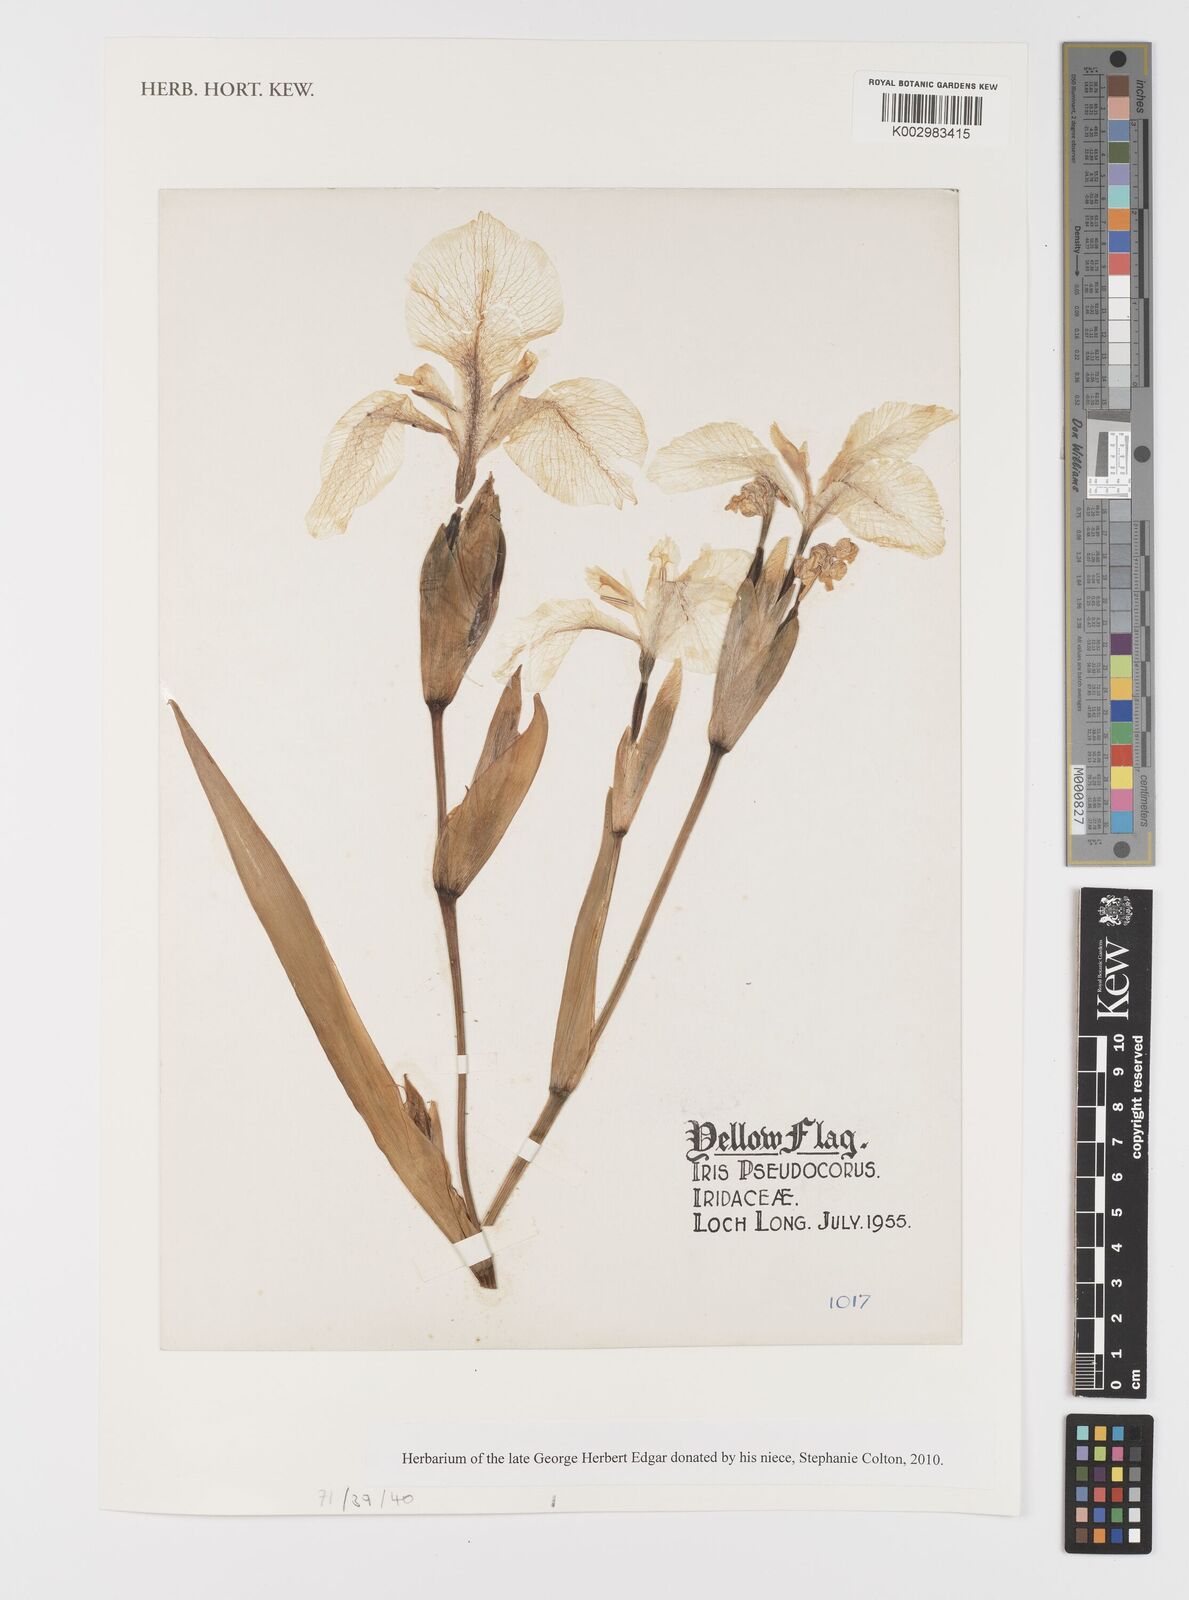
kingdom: Plantae
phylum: Tracheophyta
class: Liliopsida
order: Asparagales
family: Iridaceae
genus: Iris
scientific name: Iris pseudacorus
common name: Yellow flag
